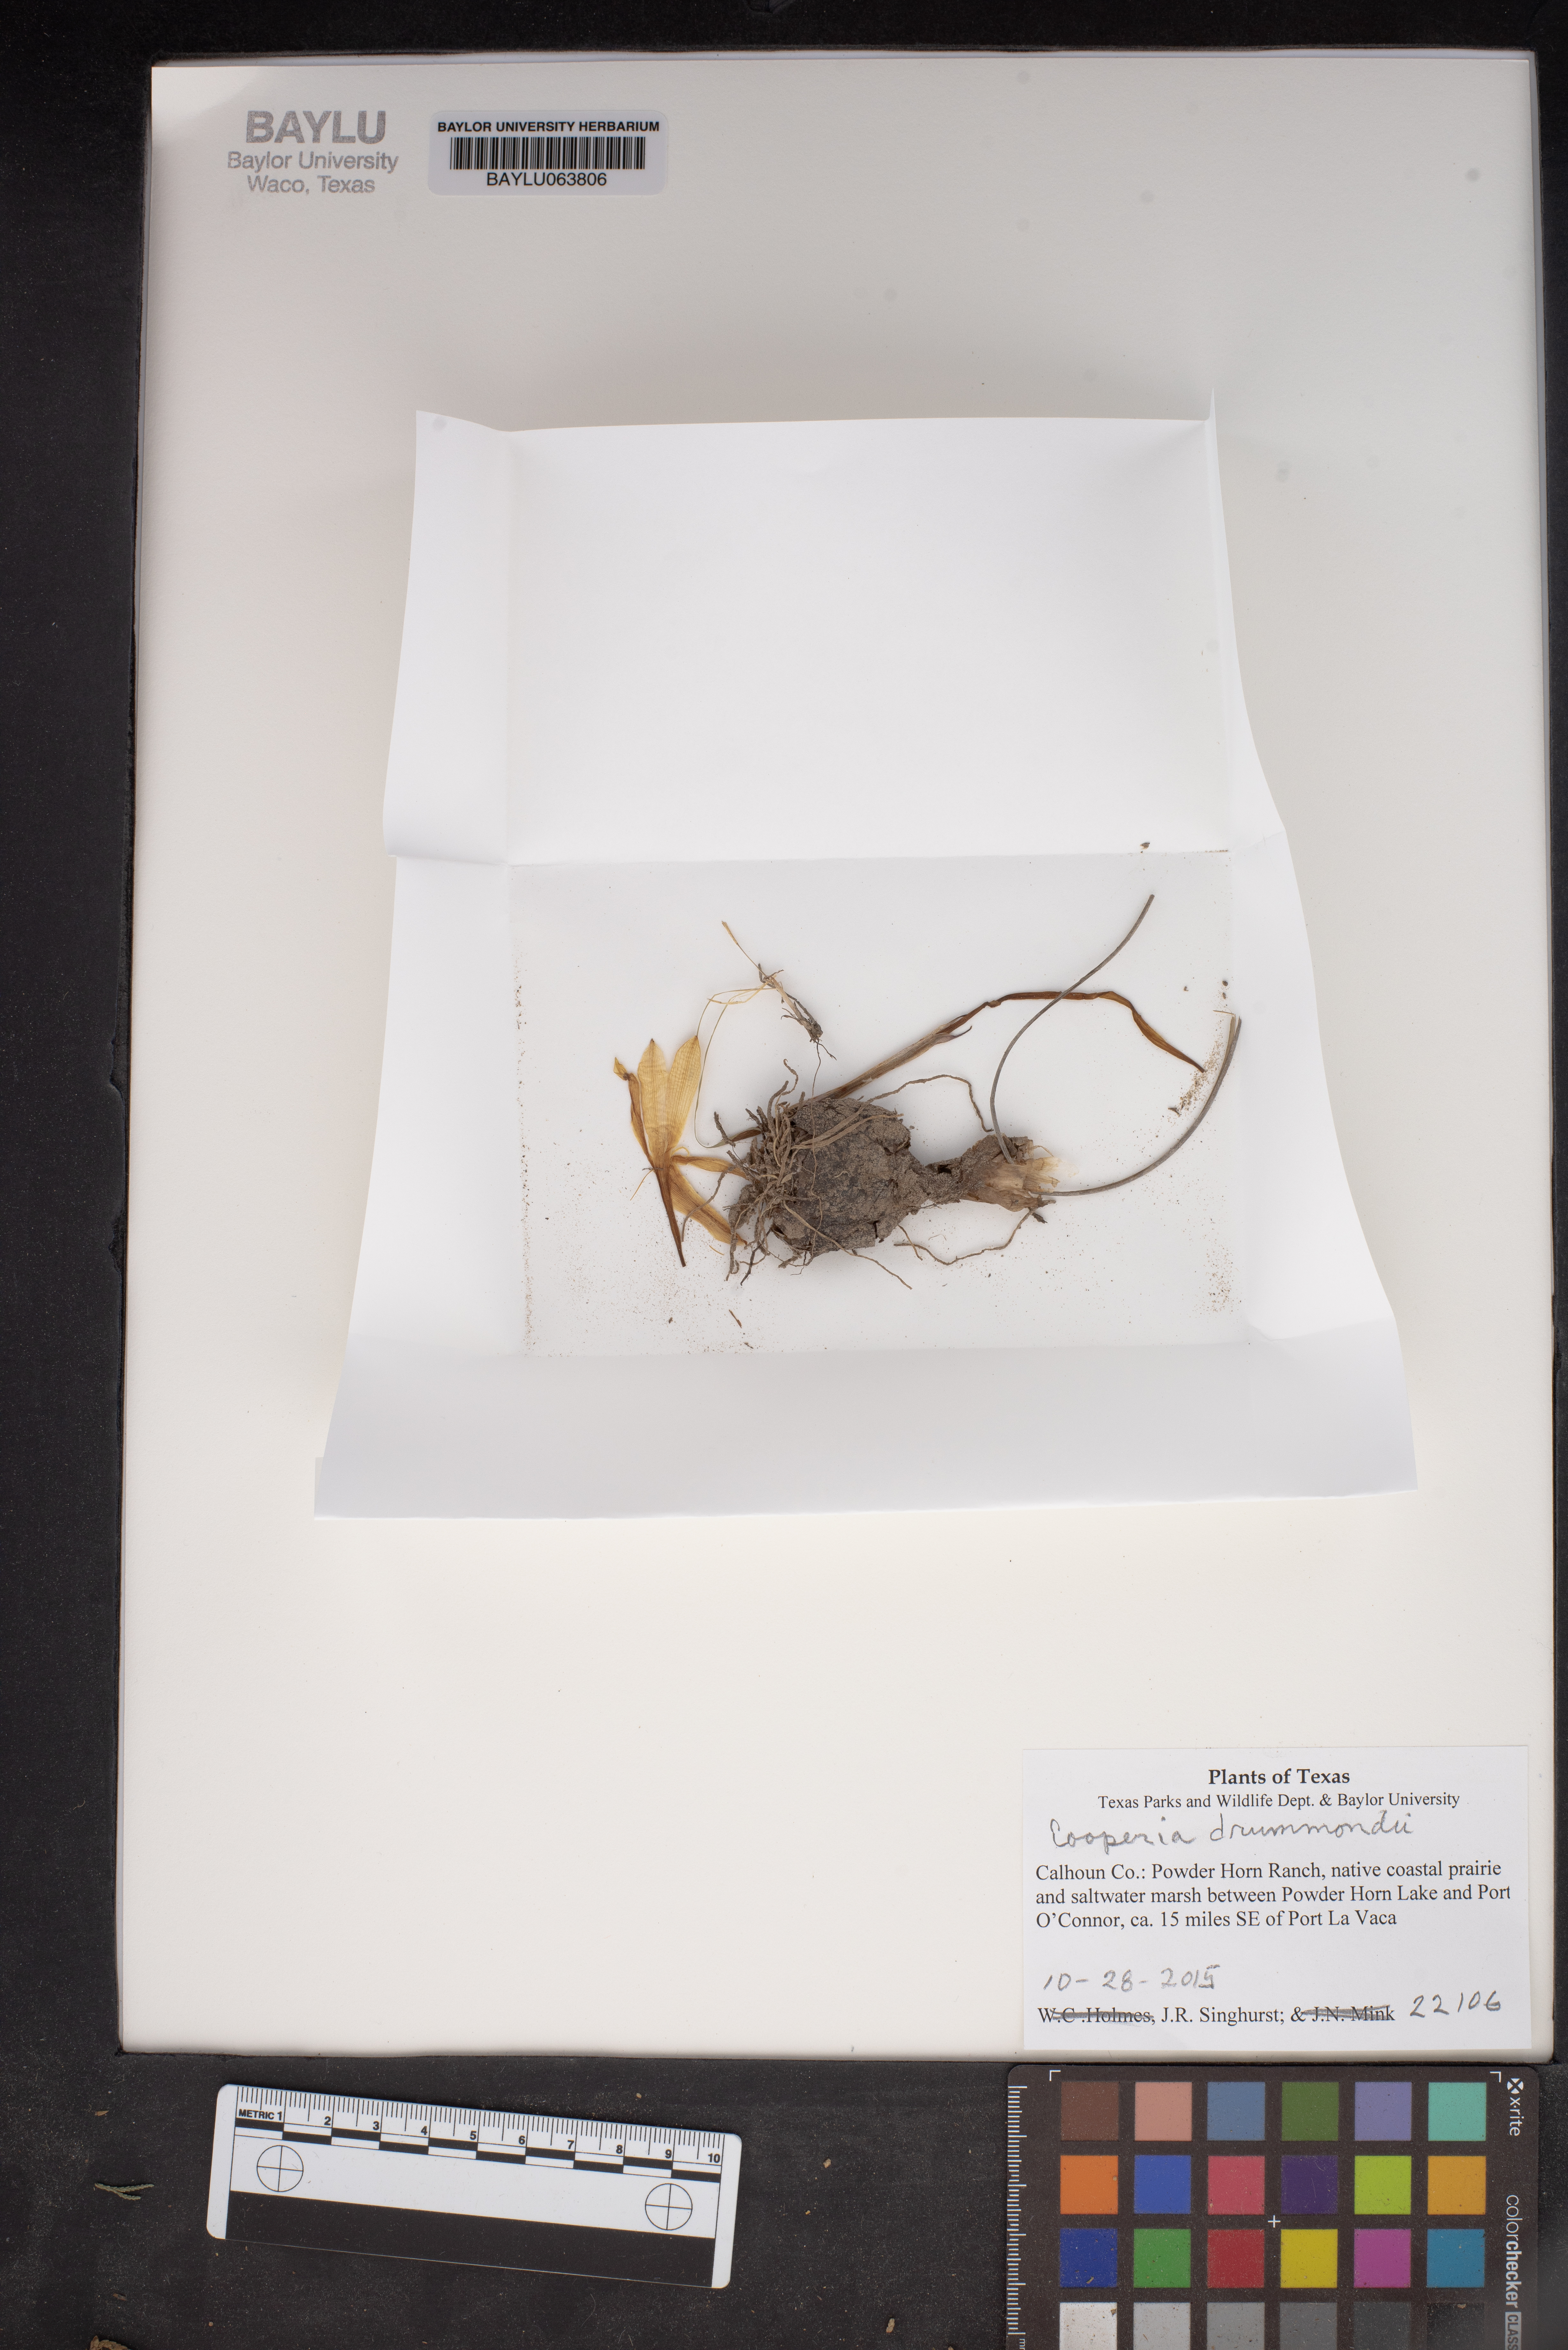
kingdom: Plantae
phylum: Tracheophyta
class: Liliopsida
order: Asparagales
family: Amaryllidaceae
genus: Zephyranthes
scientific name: Zephyranthes chlorosolen
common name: Evening rain-lily
